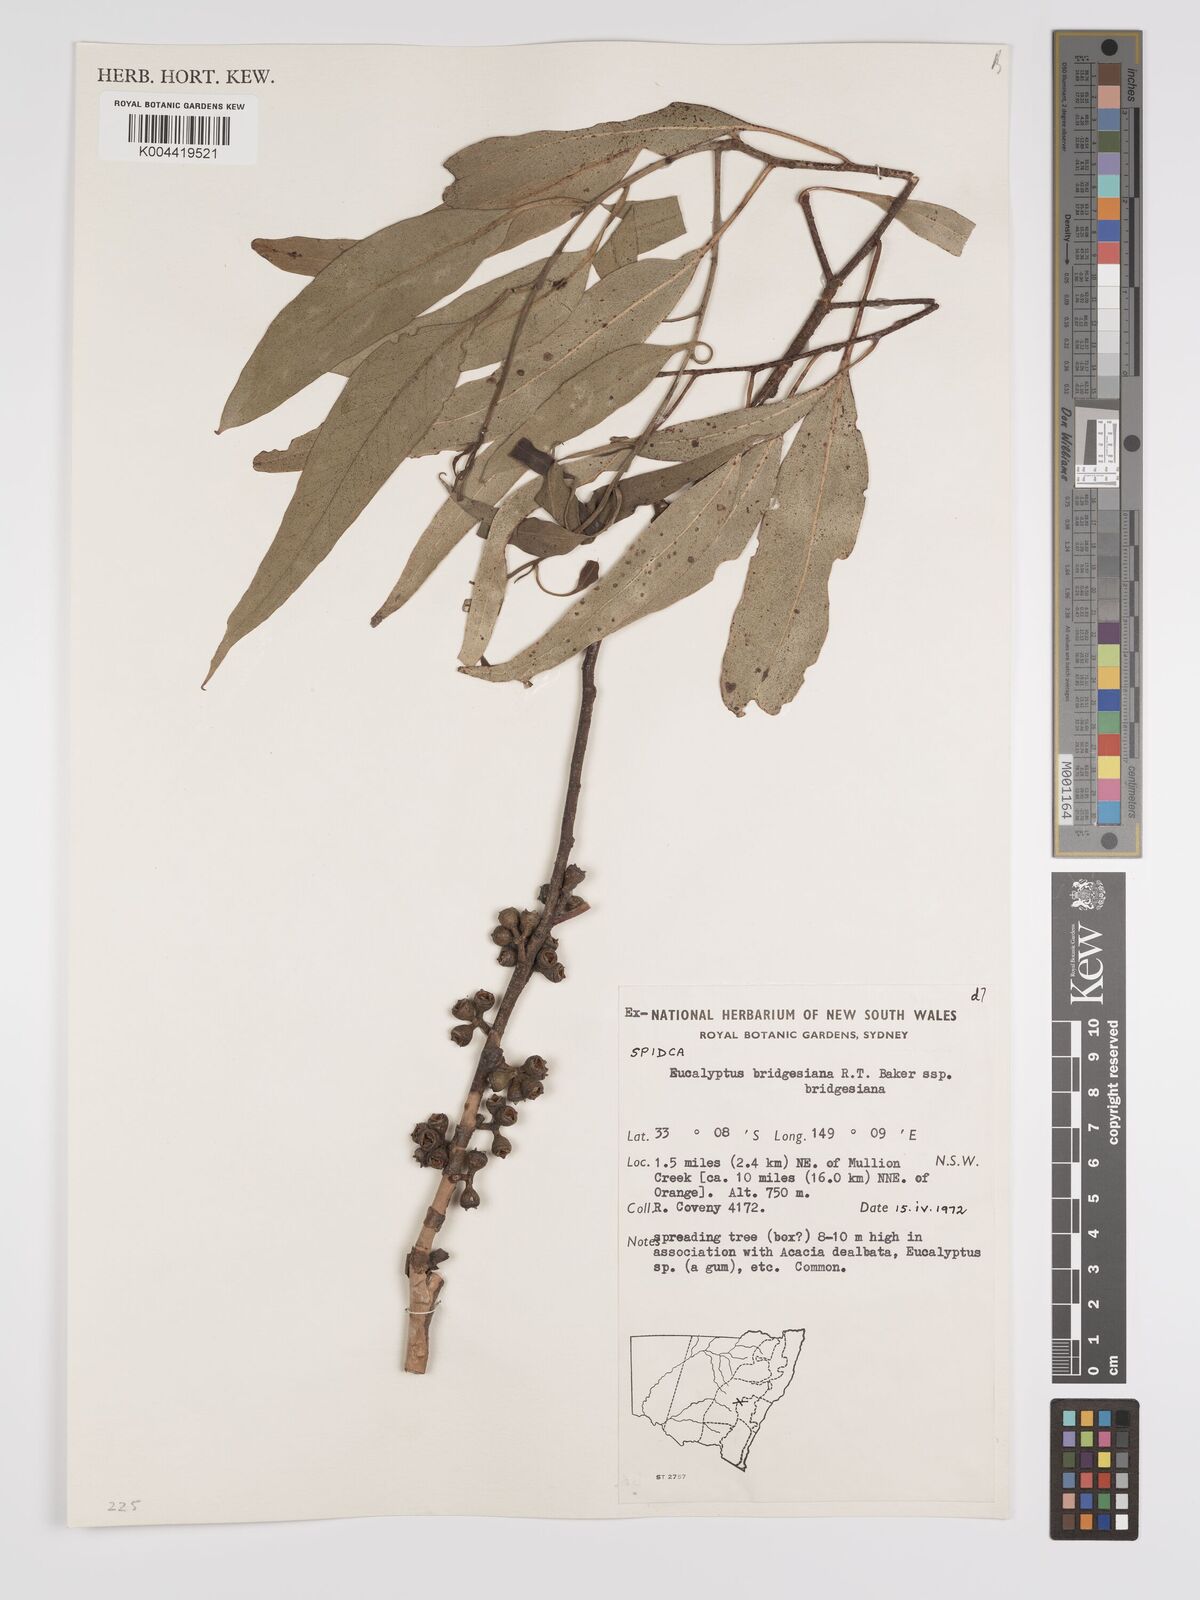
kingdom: Plantae
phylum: Tracheophyta
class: Magnoliopsida
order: Myrtales
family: Myrtaceae
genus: Eucalyptus
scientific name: Eucalyptus bridgesiana
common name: Applebox
